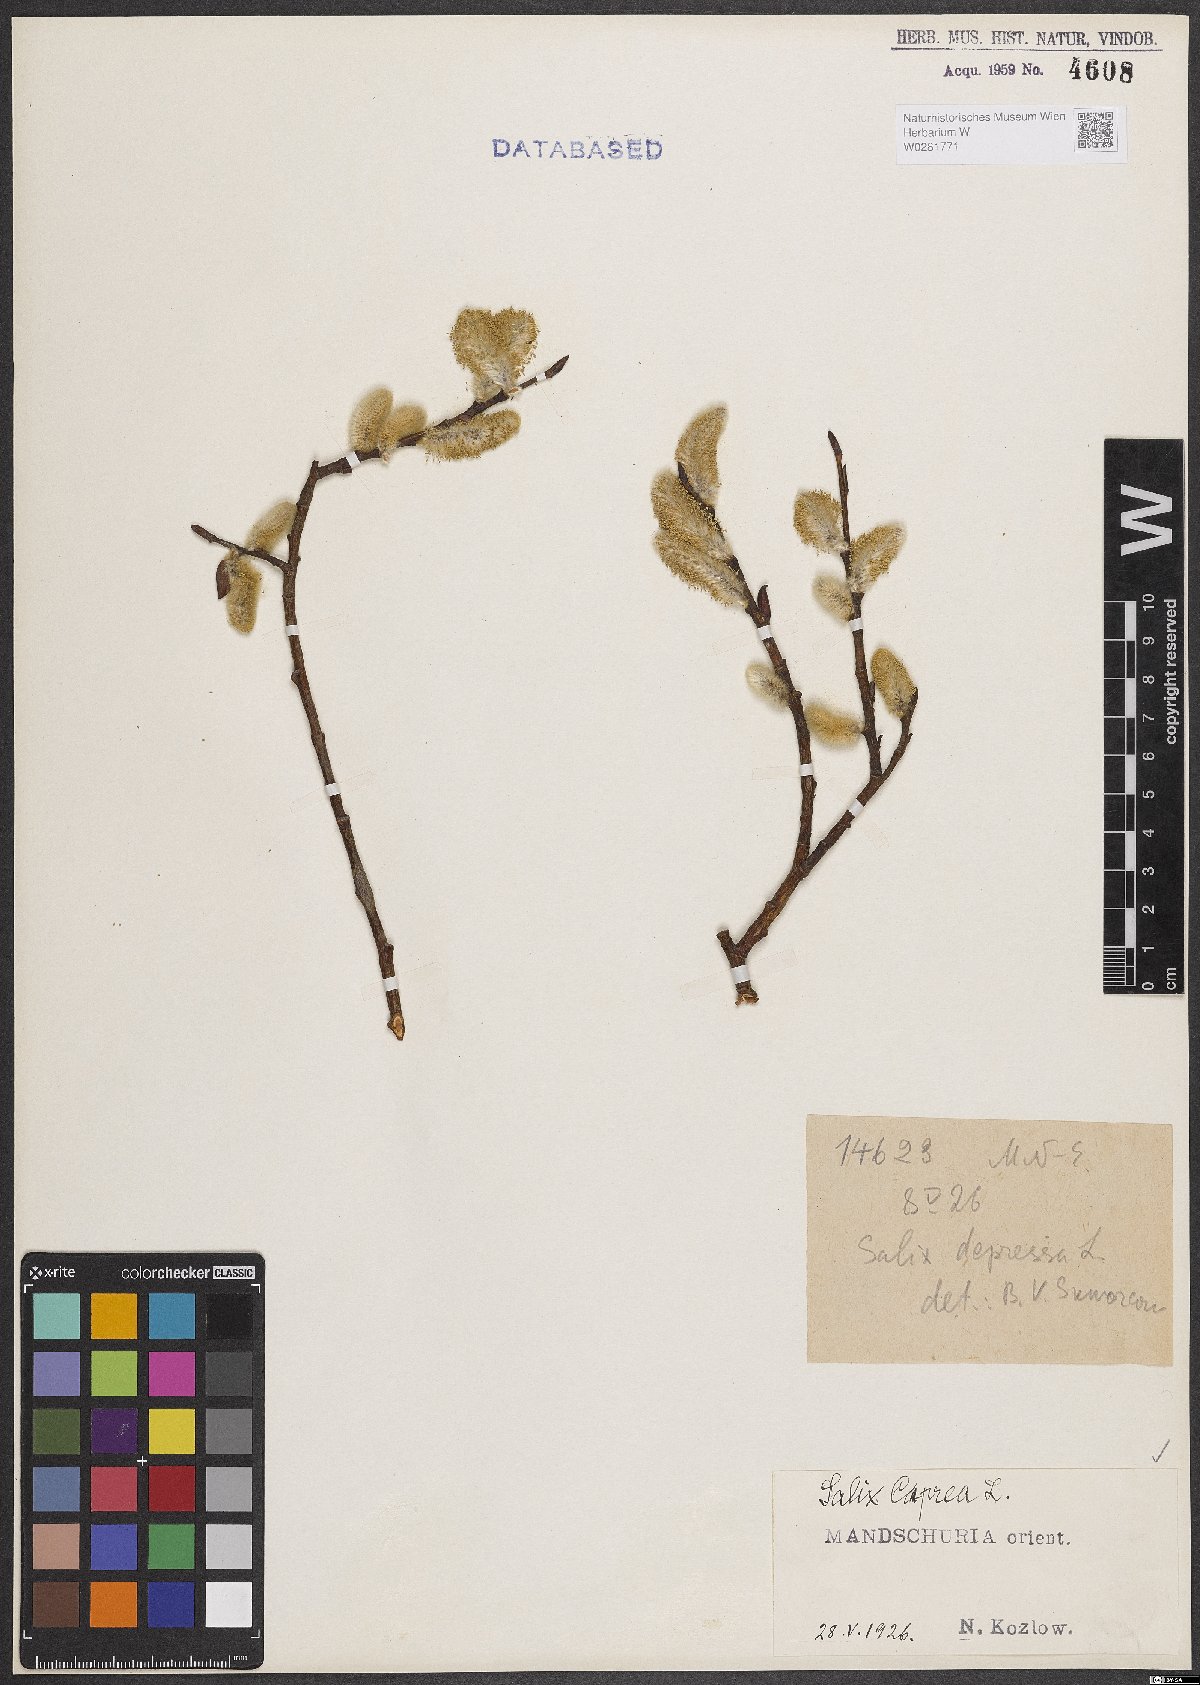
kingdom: Plantae
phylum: Tracheophyta
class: Magnoliopsida
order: Malpighiales
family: Salicaceae
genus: Salix
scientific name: Salix caprea
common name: Goat willow
